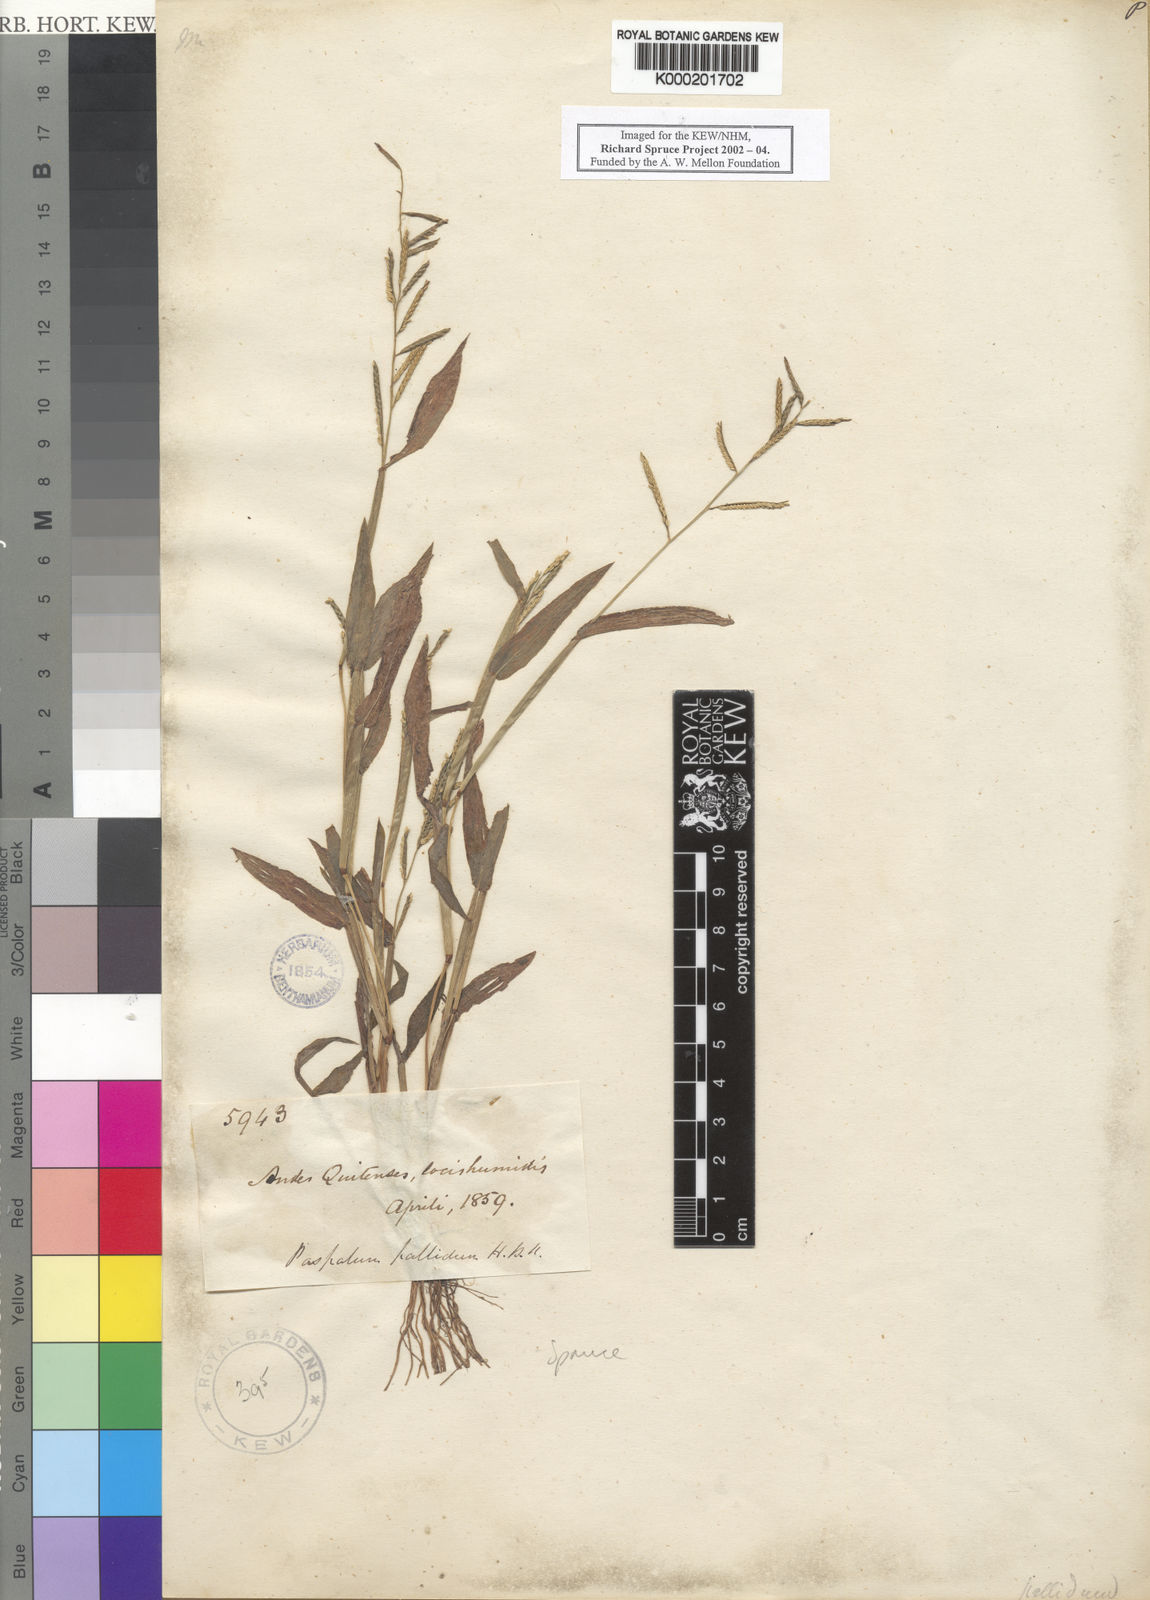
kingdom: Plantae
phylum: Tracheophyta
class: Liliopsida
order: Poales
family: Poaceae
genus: Paspalum
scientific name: Paspalum pallidum
